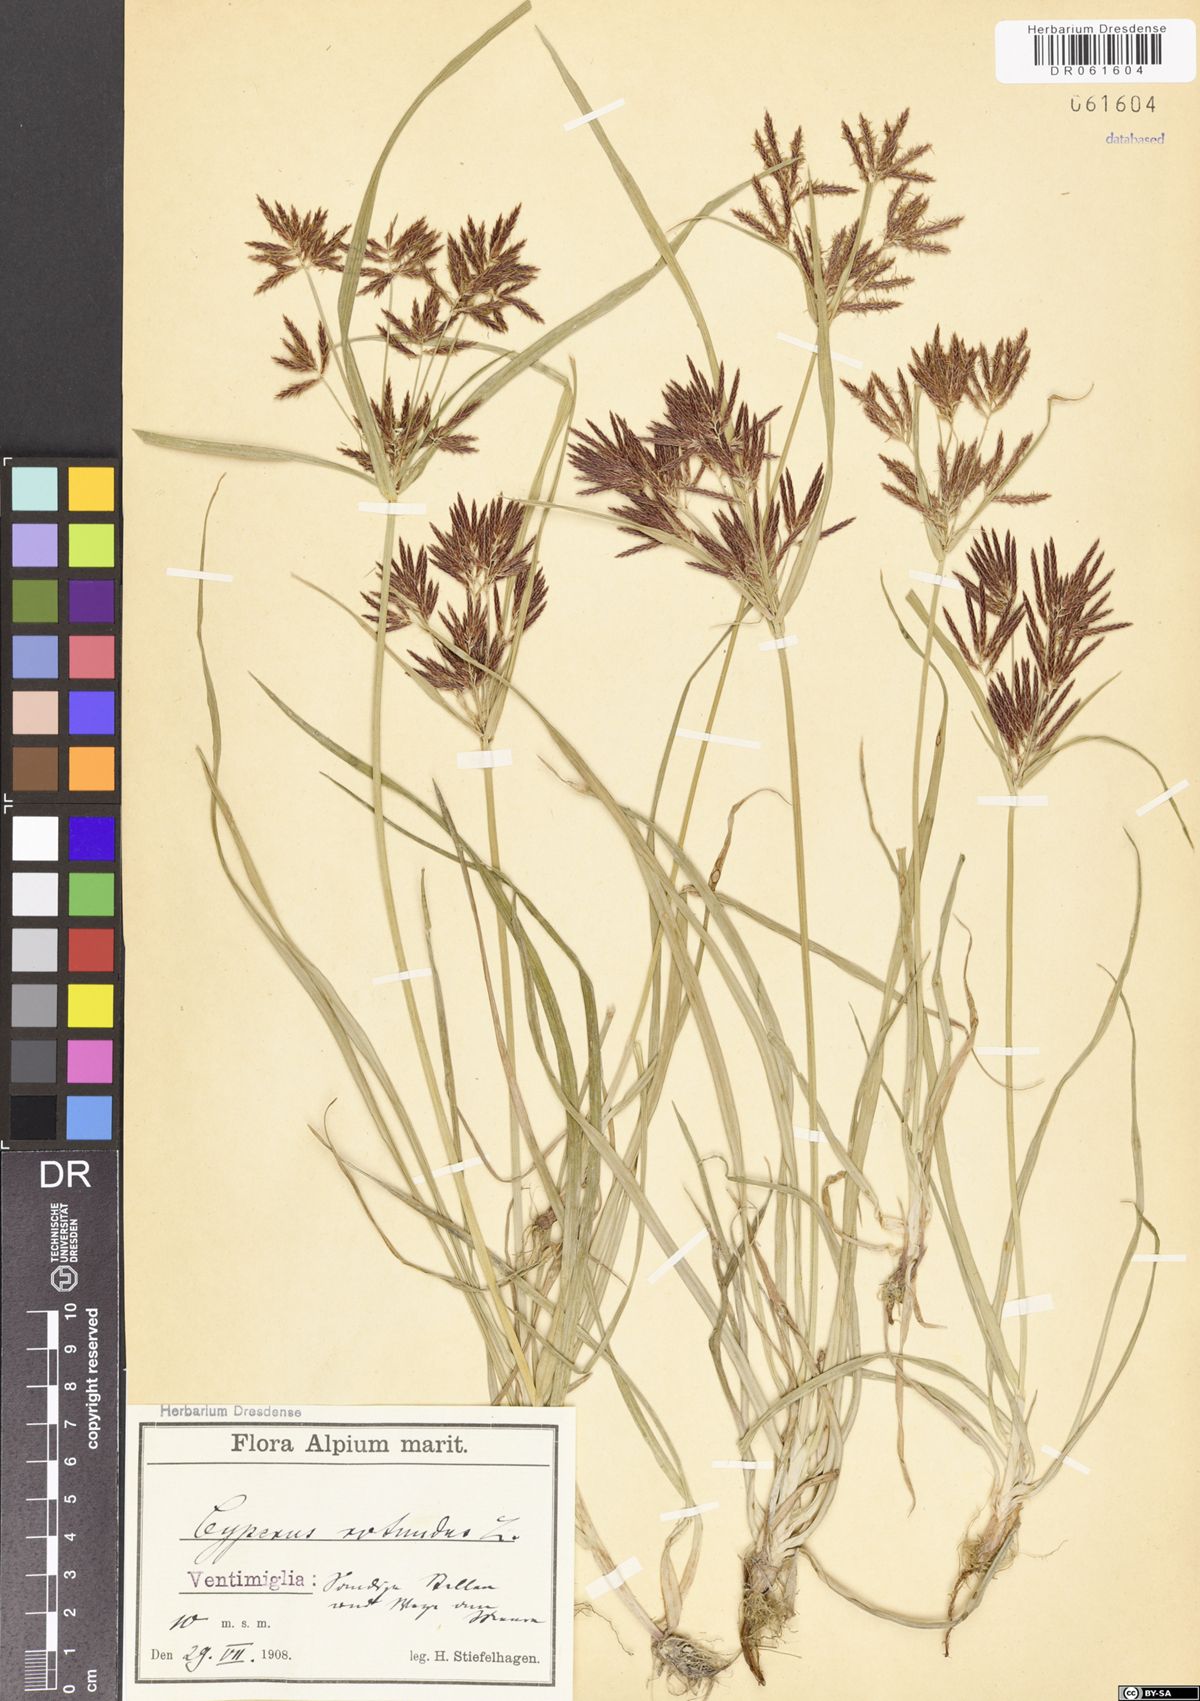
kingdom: Plantae
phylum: Tracheophyta
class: Liliopsida
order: Poales
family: Cyperaceae
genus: Cyperus
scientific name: Cyperus rotundus
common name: Nutgrass
